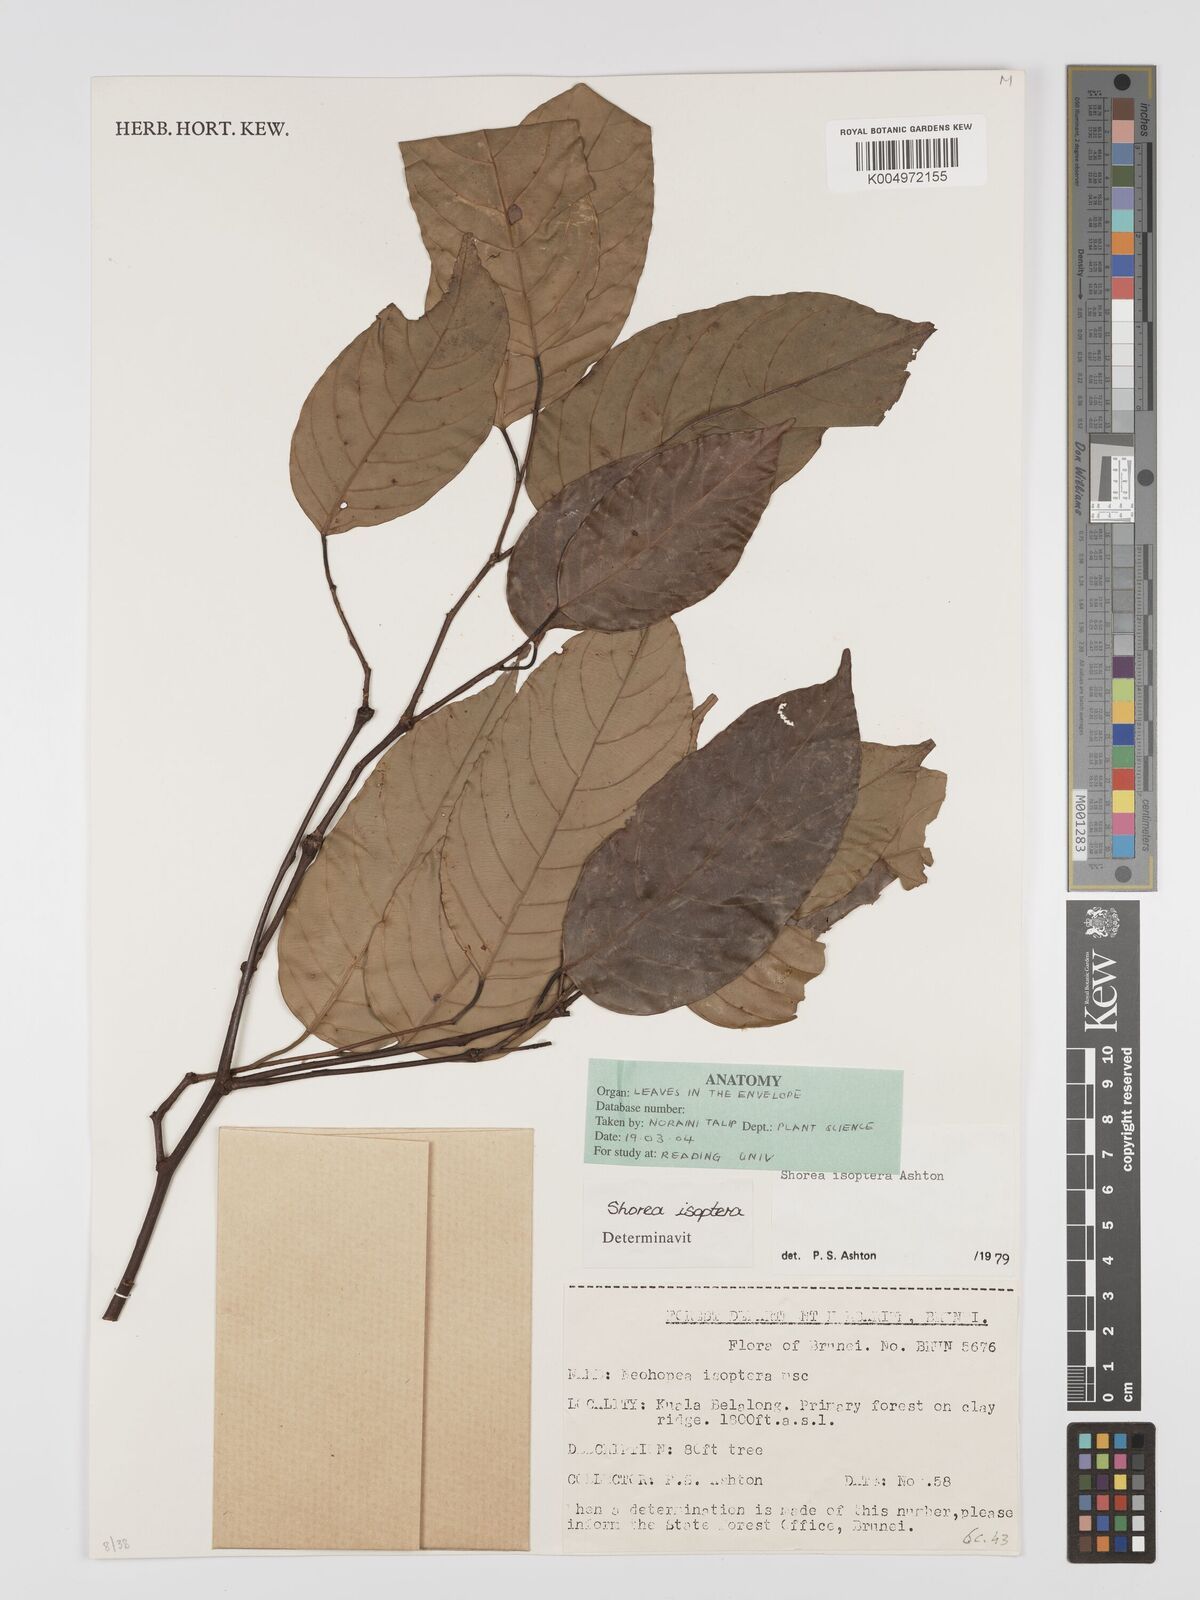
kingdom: Plantae
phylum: Tracheophyta
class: Magnoliopsida
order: Malvales
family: Dipterocarpaceae
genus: Neohopea
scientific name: Neohopea isoptera
